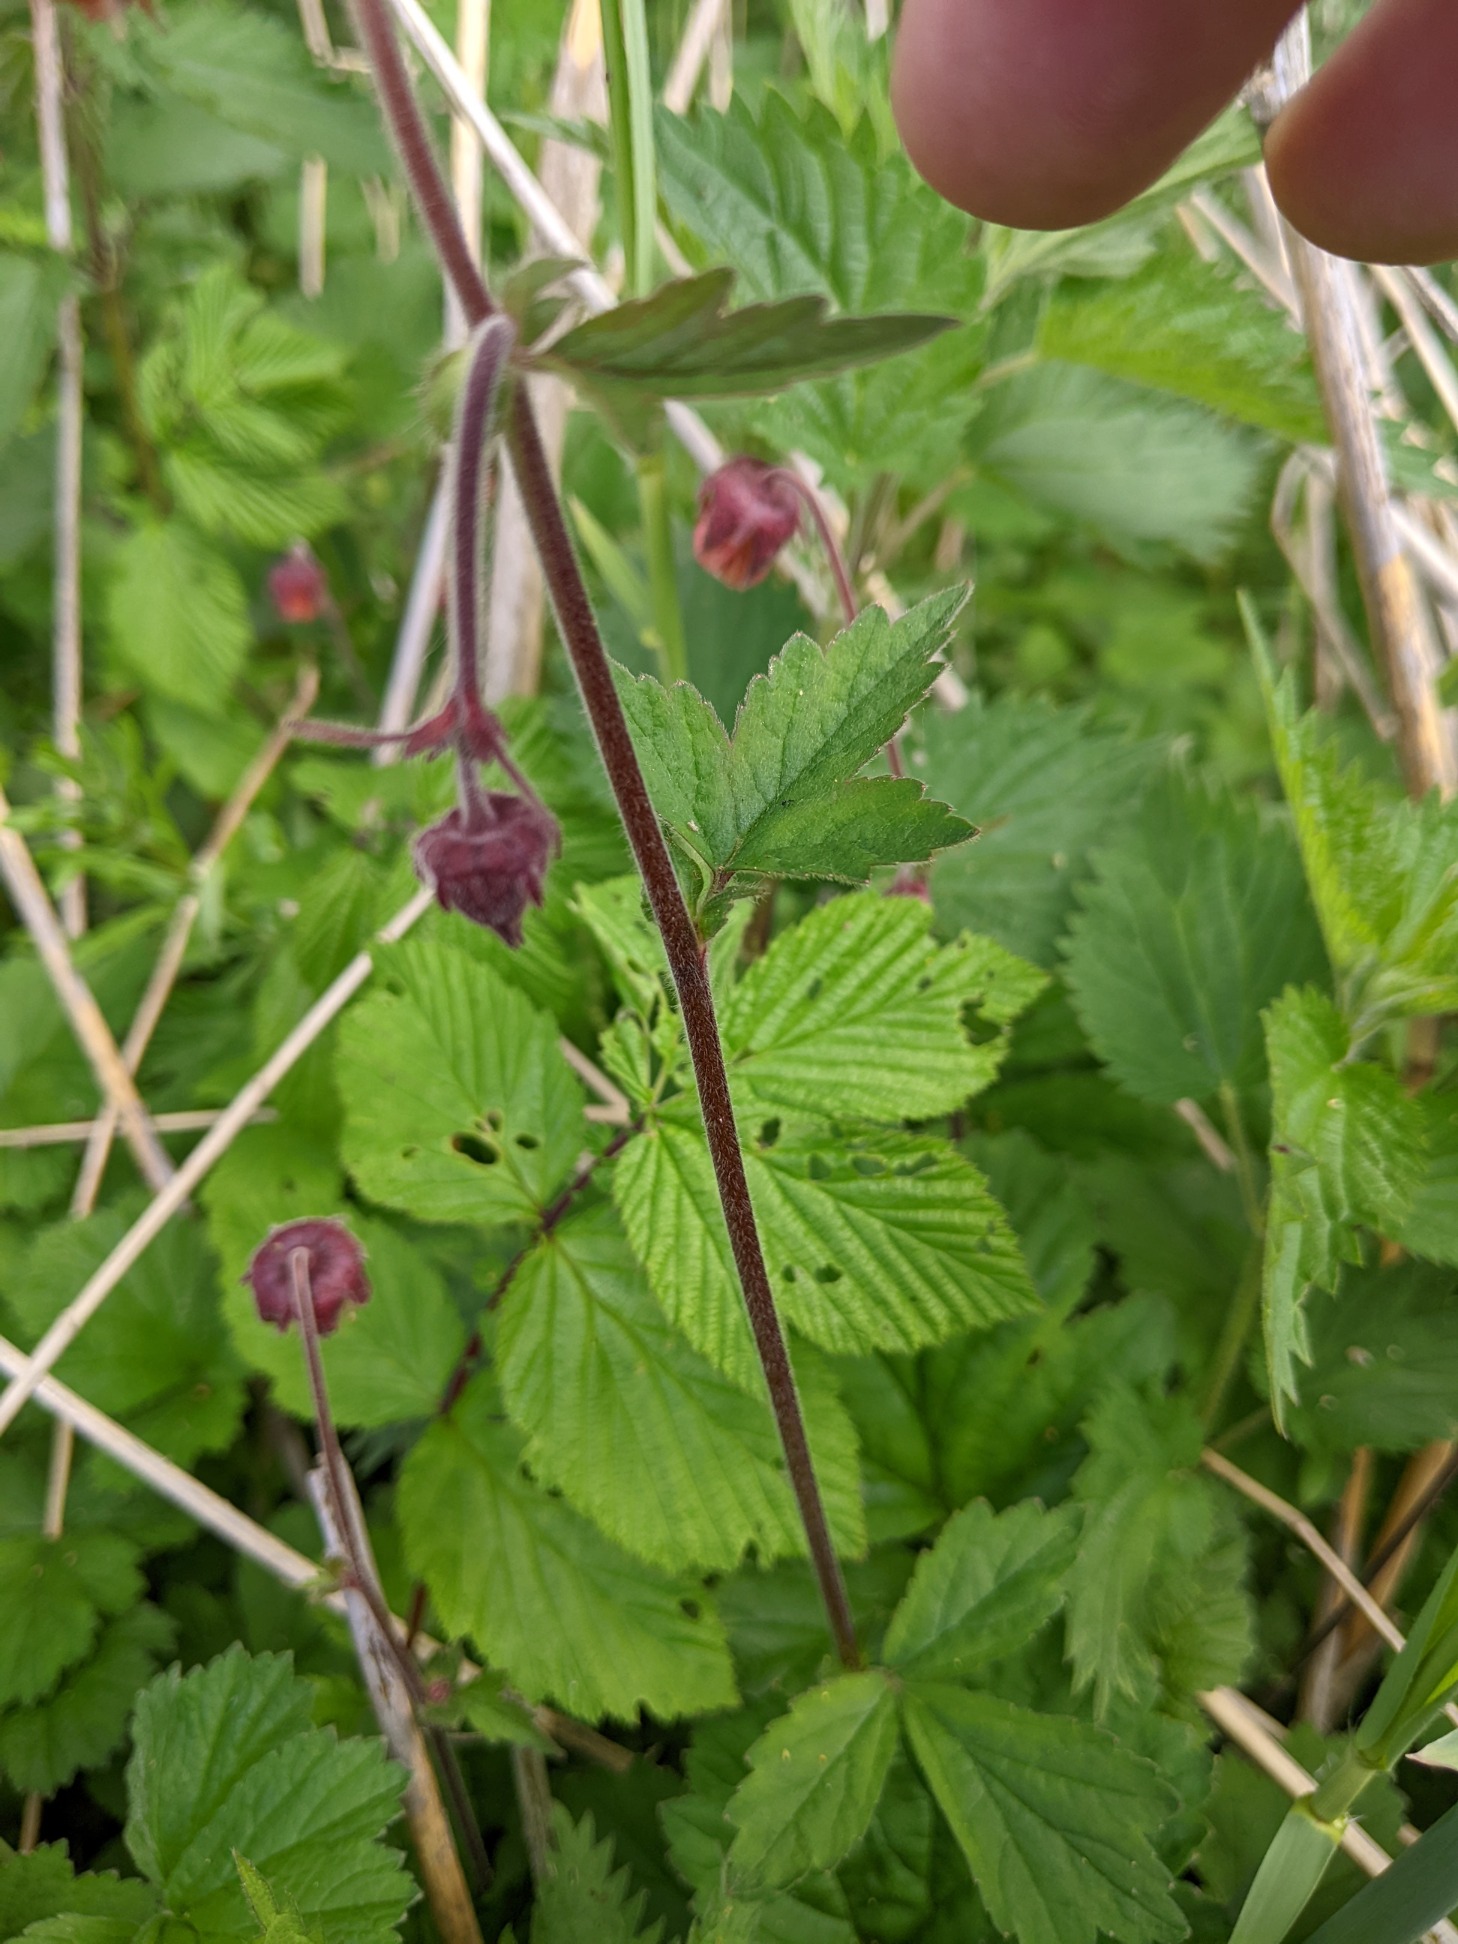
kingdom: Plantae
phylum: Tracheophyta
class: Magnoliopsida
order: Rosales
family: Rosaceae
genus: Geum
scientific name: Geum rivale
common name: Eng-nellikerod
